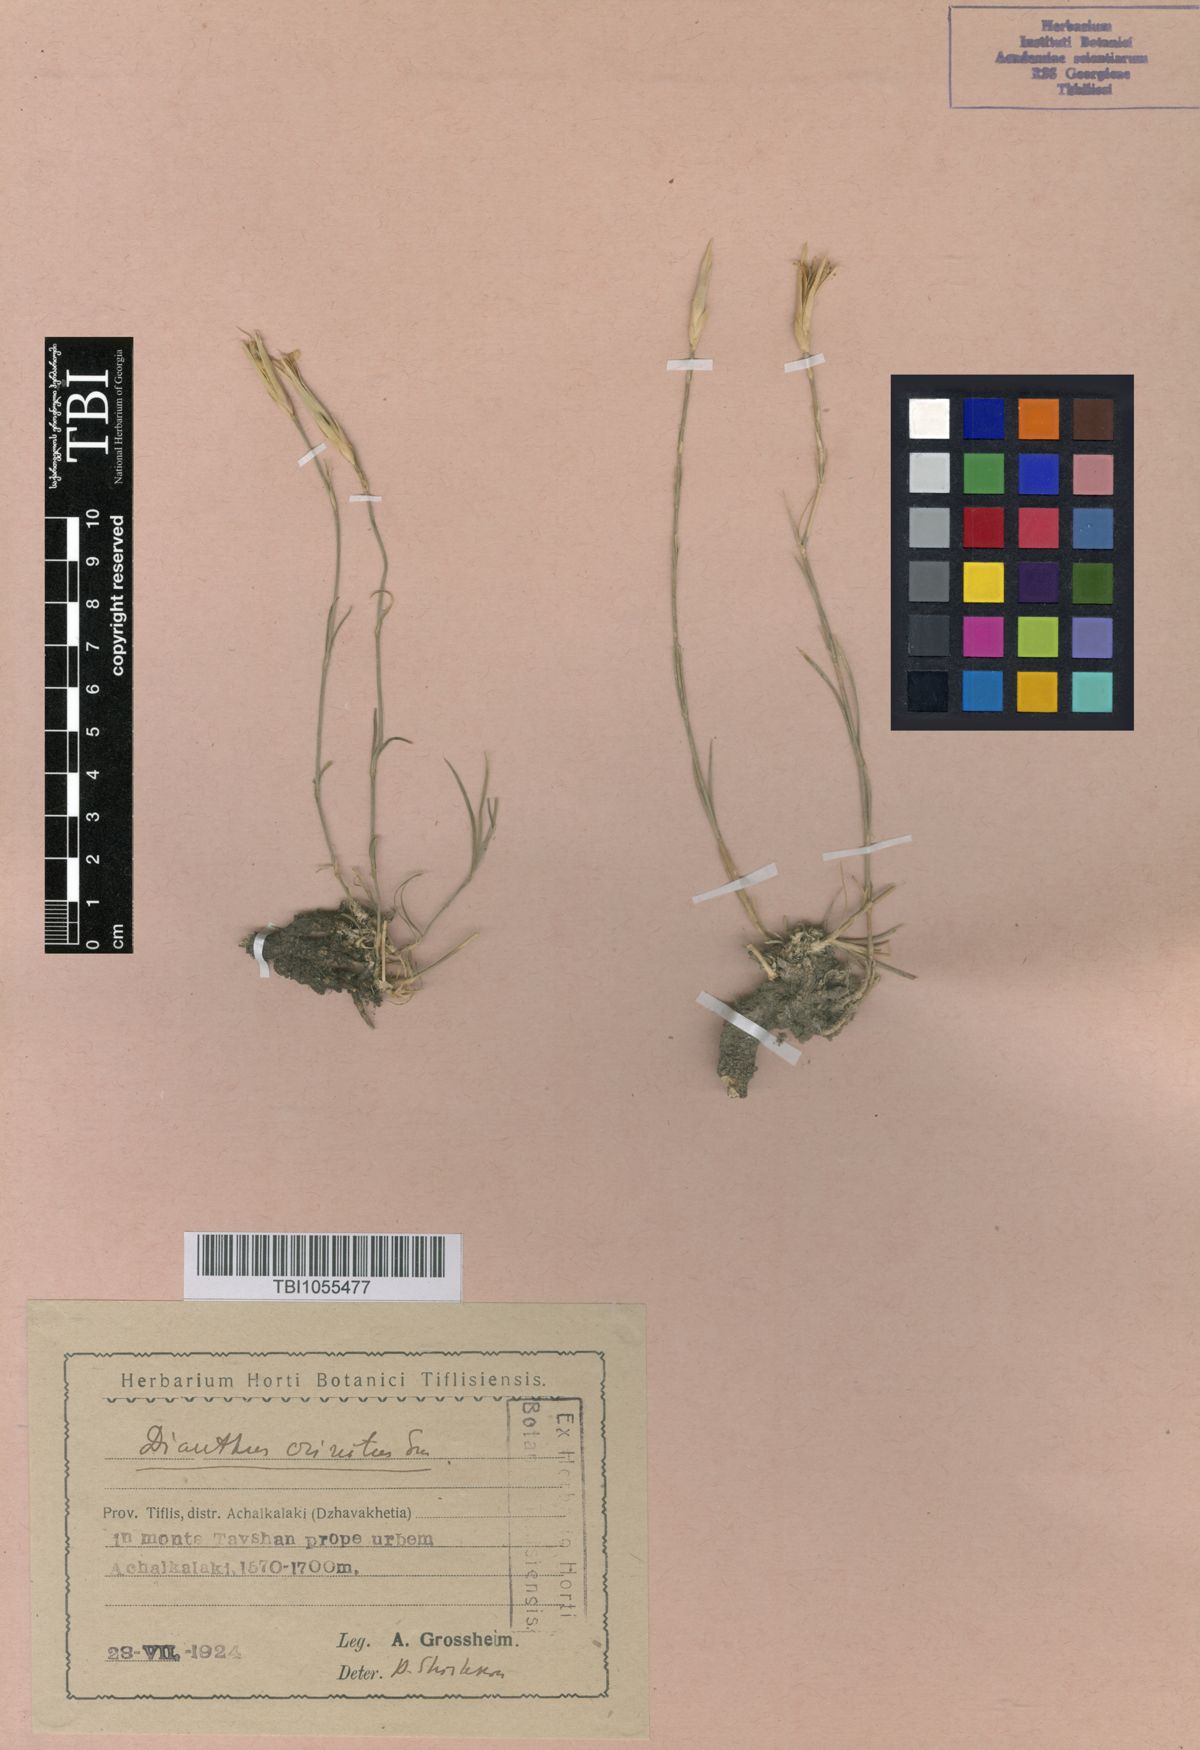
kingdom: Plantae
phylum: Tracheophyta
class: Magnoliopsida
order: Caryophyllales
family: Caryophyllaceae
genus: Dianthus
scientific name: Dianthus crinitus
